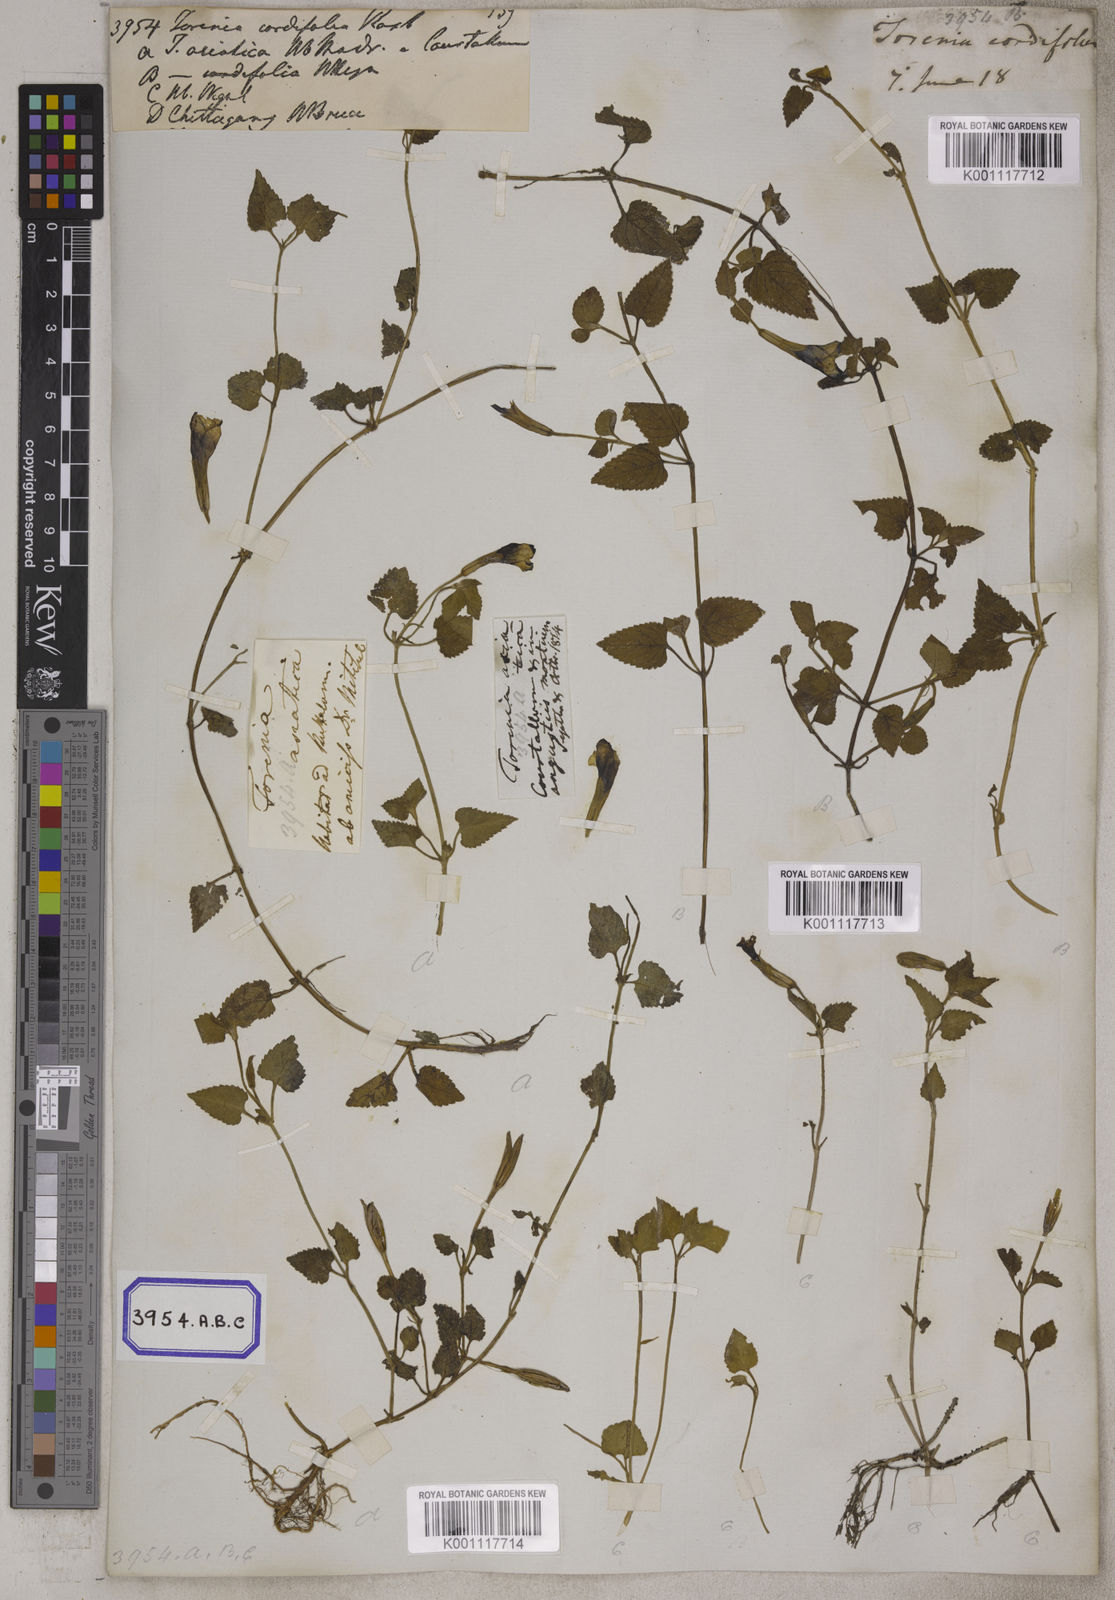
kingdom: Plantae
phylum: Tracheophyta
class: Magnoliopsida
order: Lamiales
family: Linderniaceae
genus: Torenia
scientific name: Torenia cordifolia
